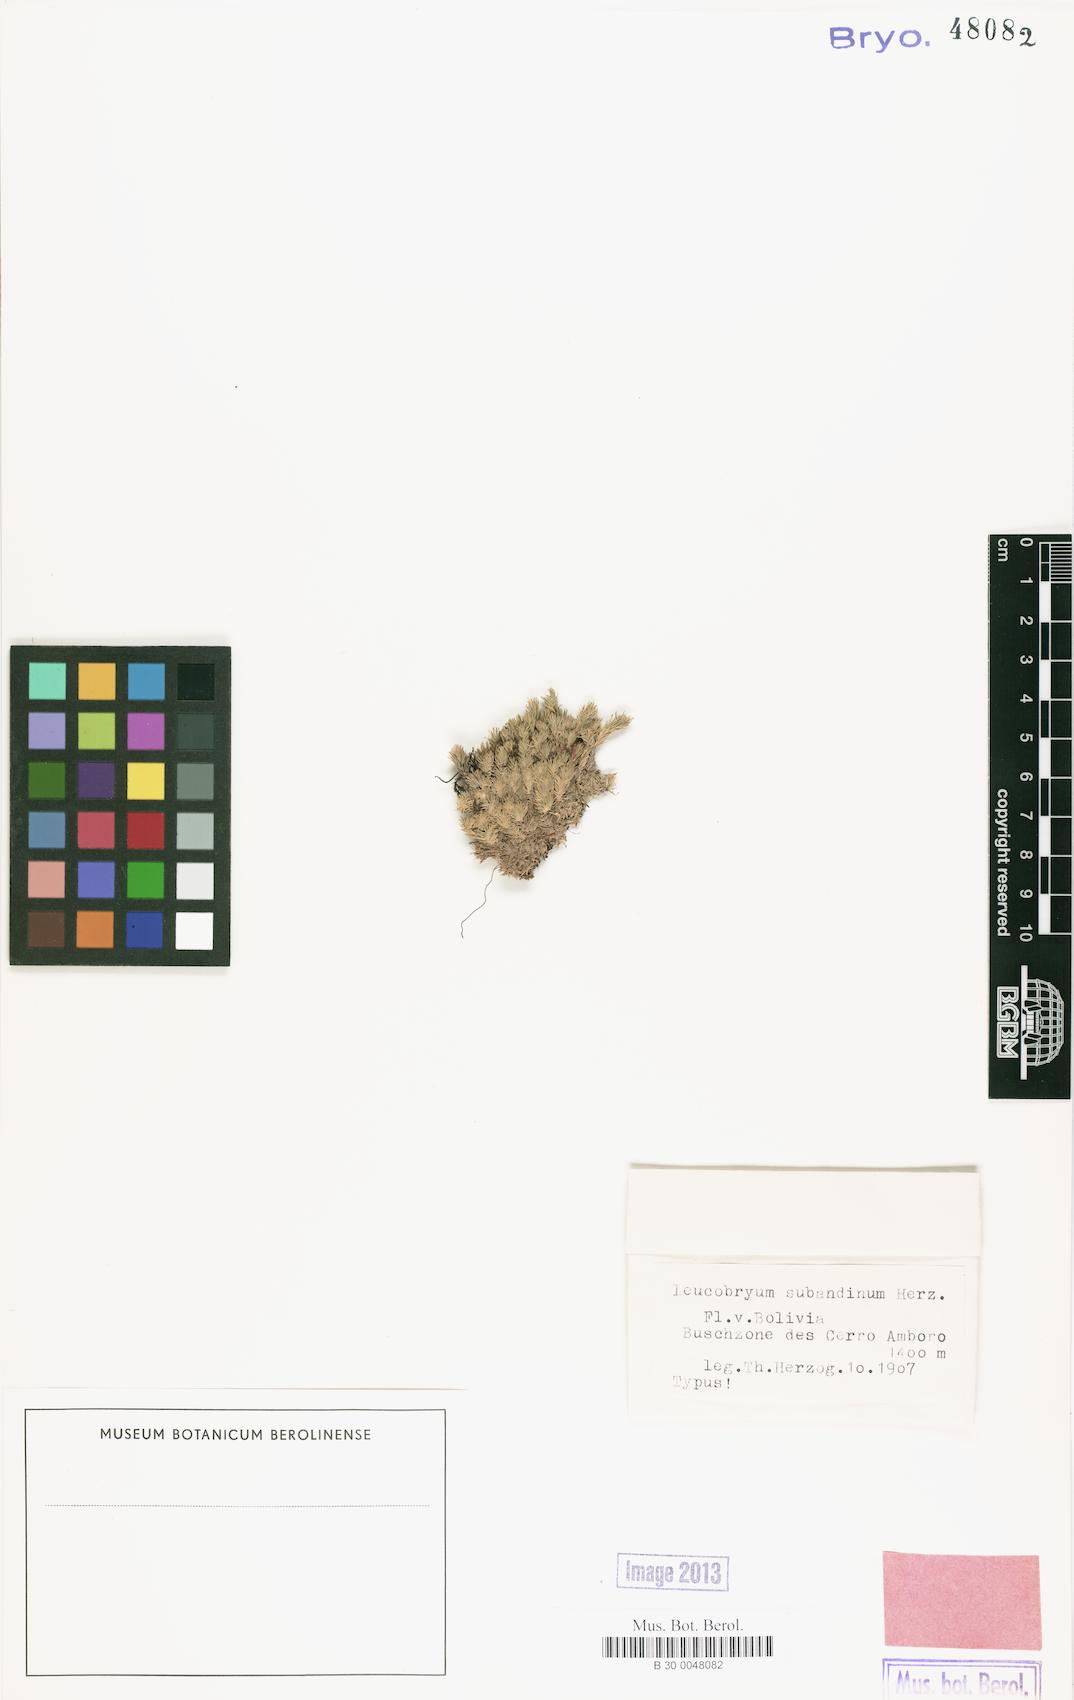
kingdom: Plantae
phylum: Bryophyta
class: Bryopsida
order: Dicranales
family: Leucobryaceae
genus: Leucobryum
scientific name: Leucobryum antillarum
